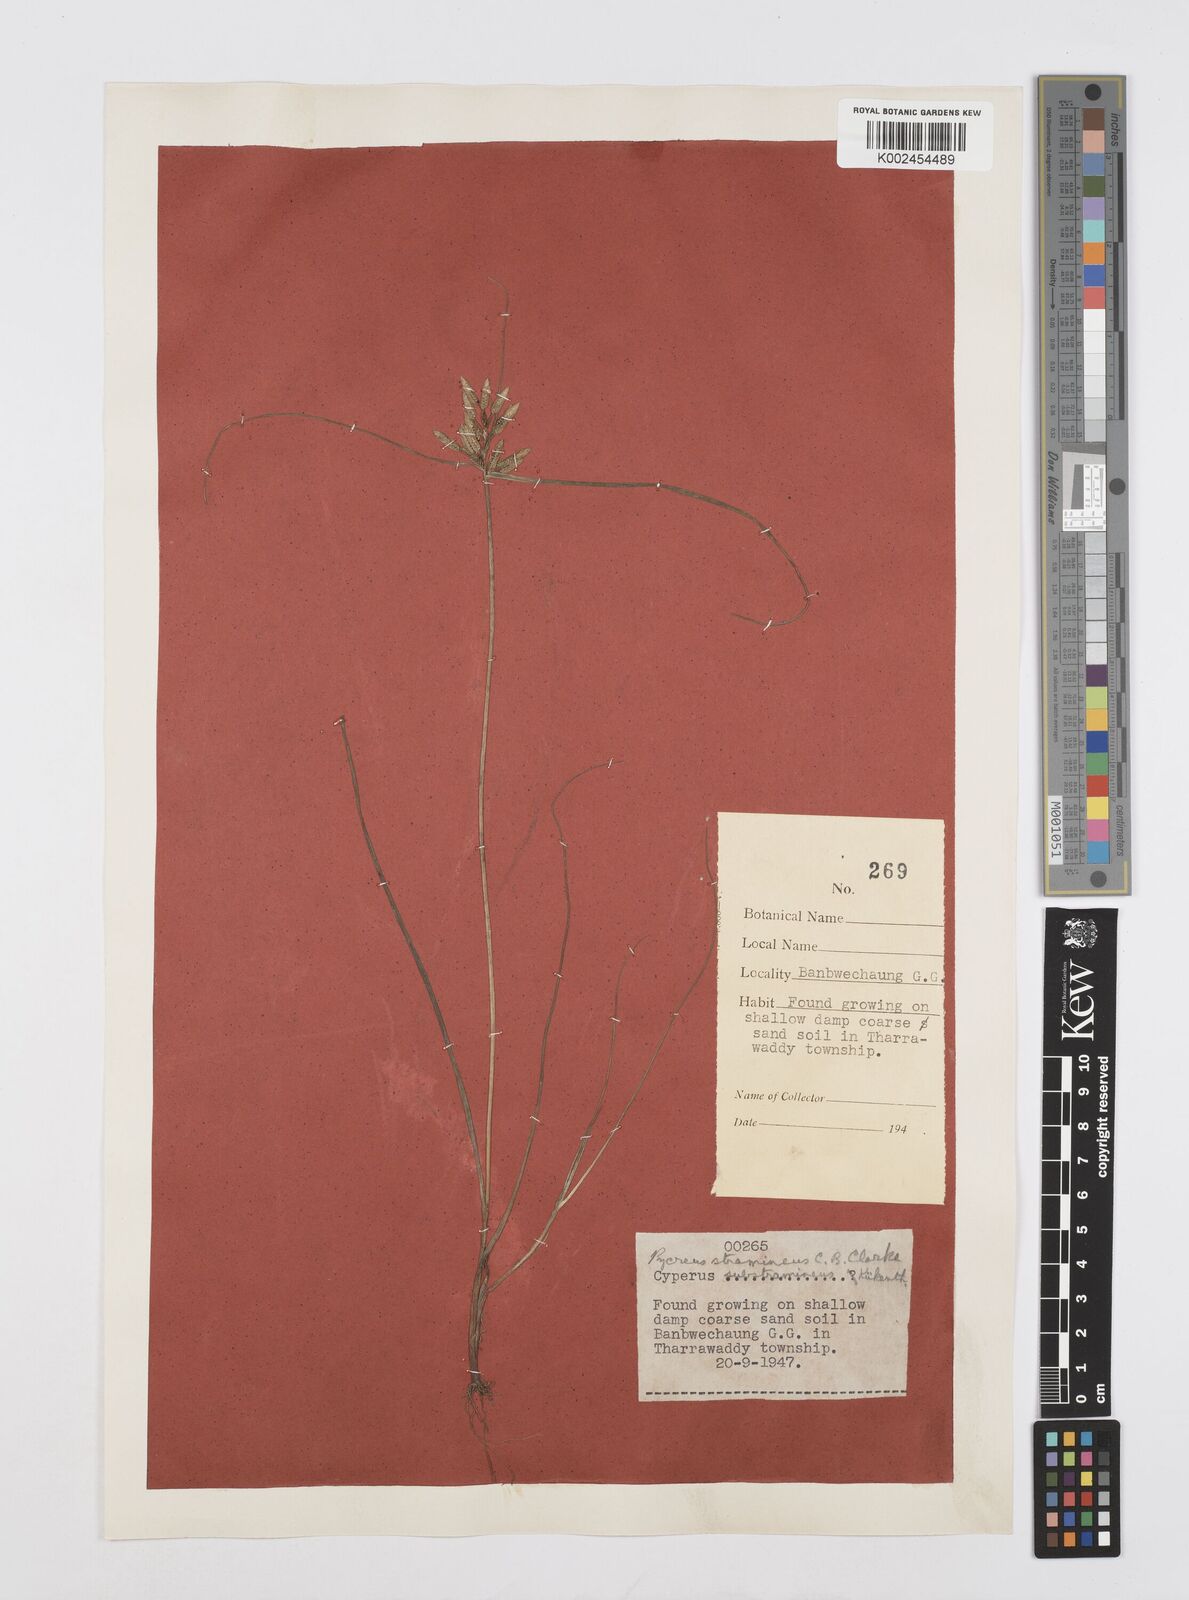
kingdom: Plantae
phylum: Tracheophyta
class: Liliopsida
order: Poales
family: Cyperaceae
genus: Cyperus
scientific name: Cyperus substramineus
